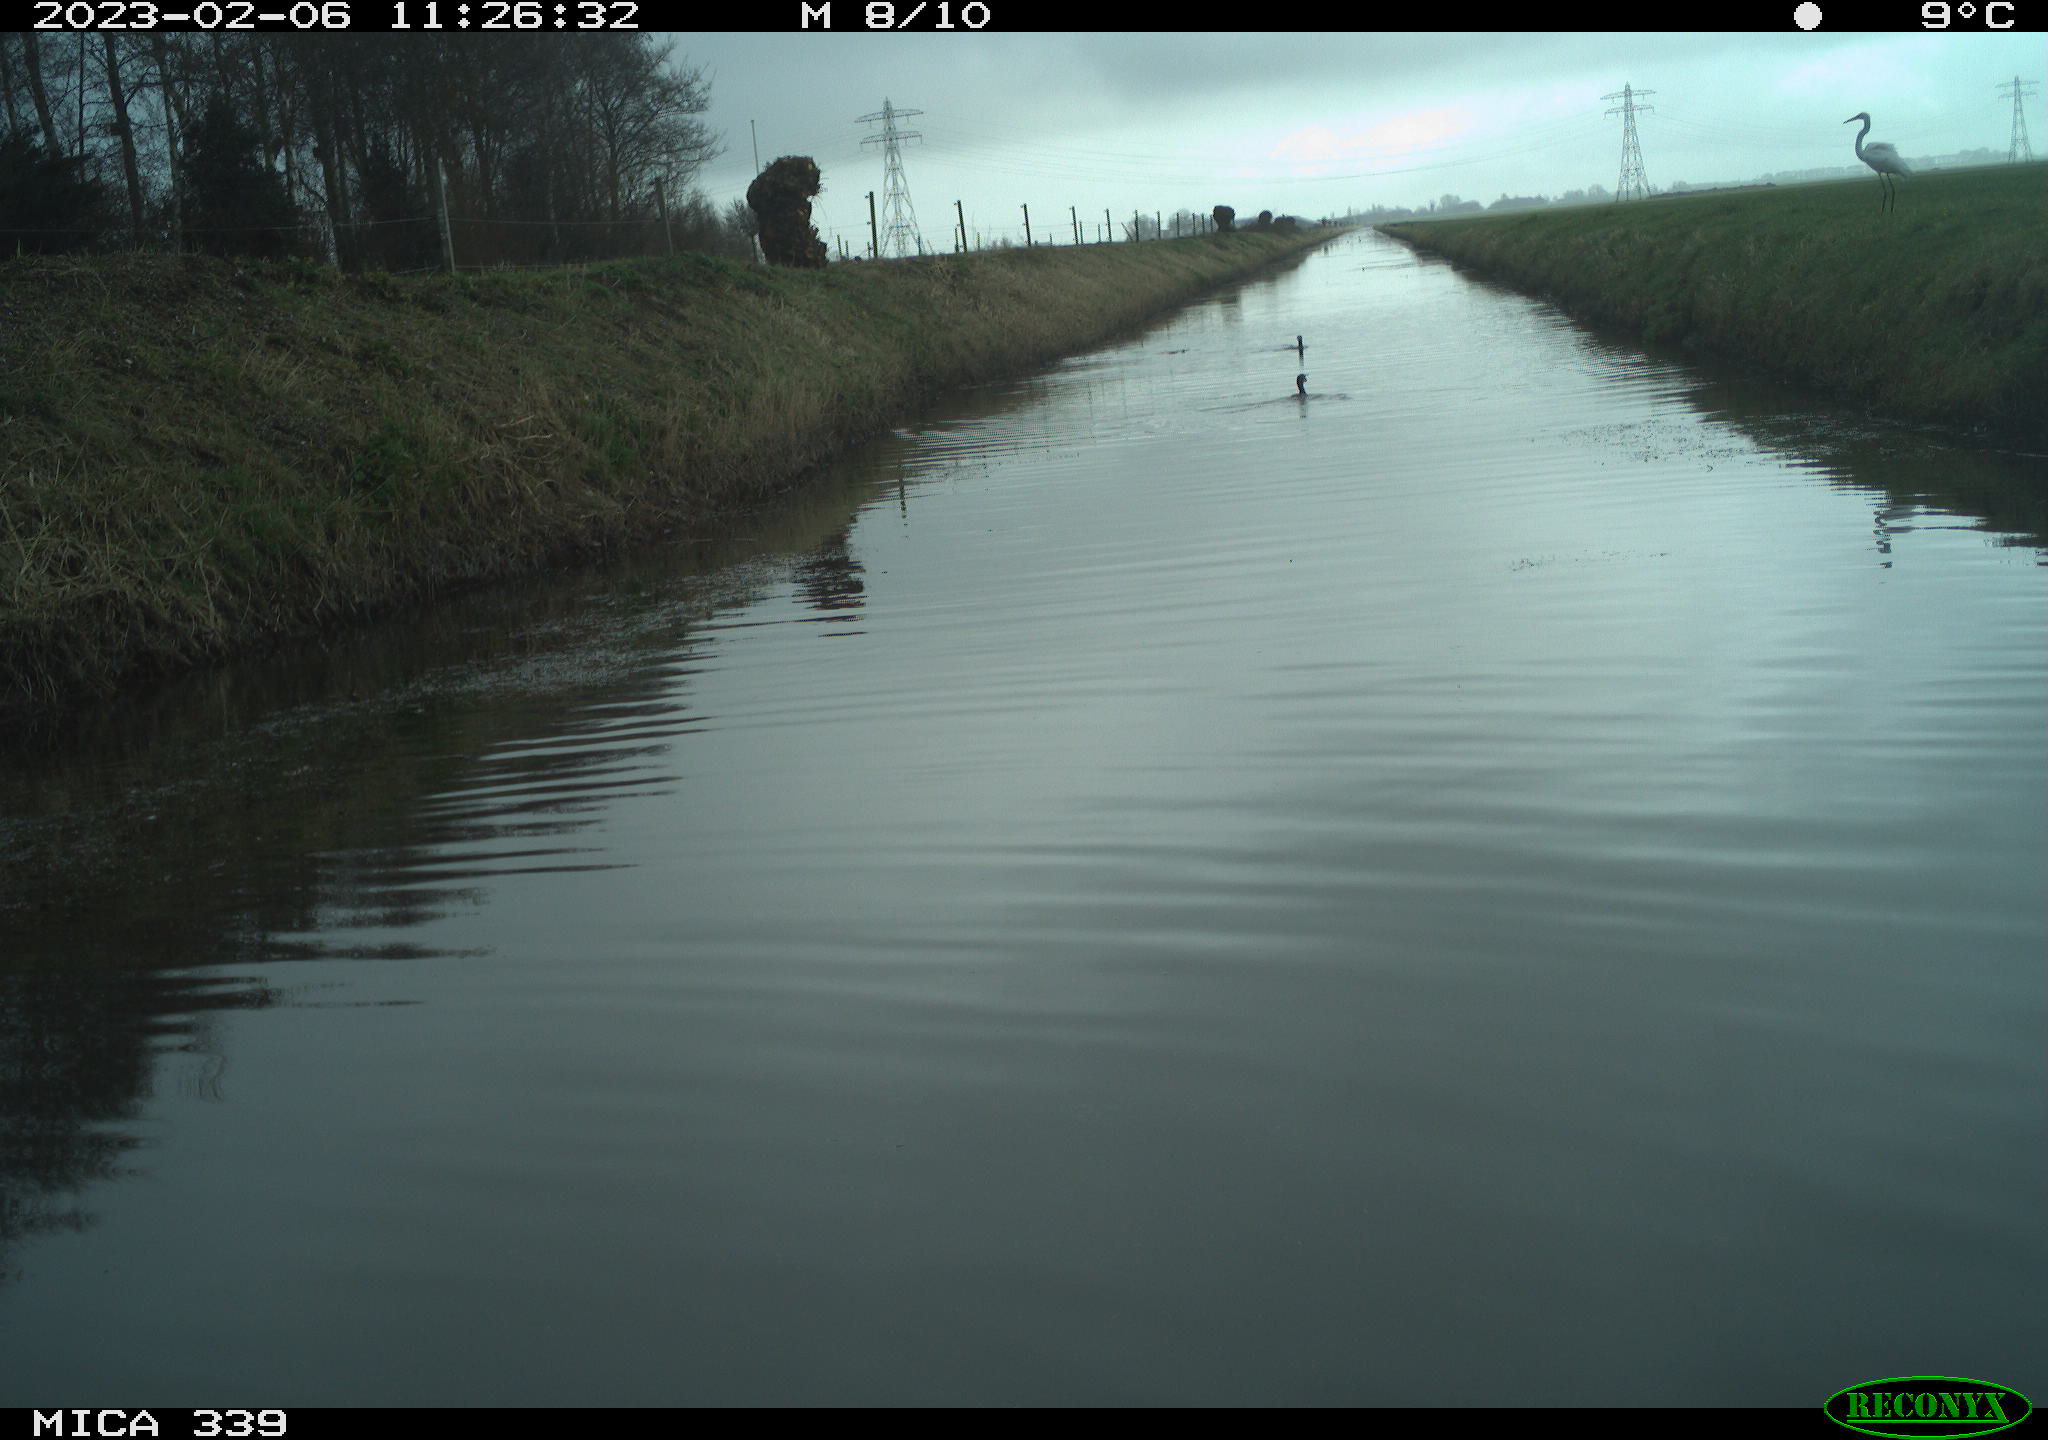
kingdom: Animalia
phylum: Chordata
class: Aves
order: Pelecaniformes
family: Ardeidae
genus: Ardea
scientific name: Ardea alba
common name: Great egret
